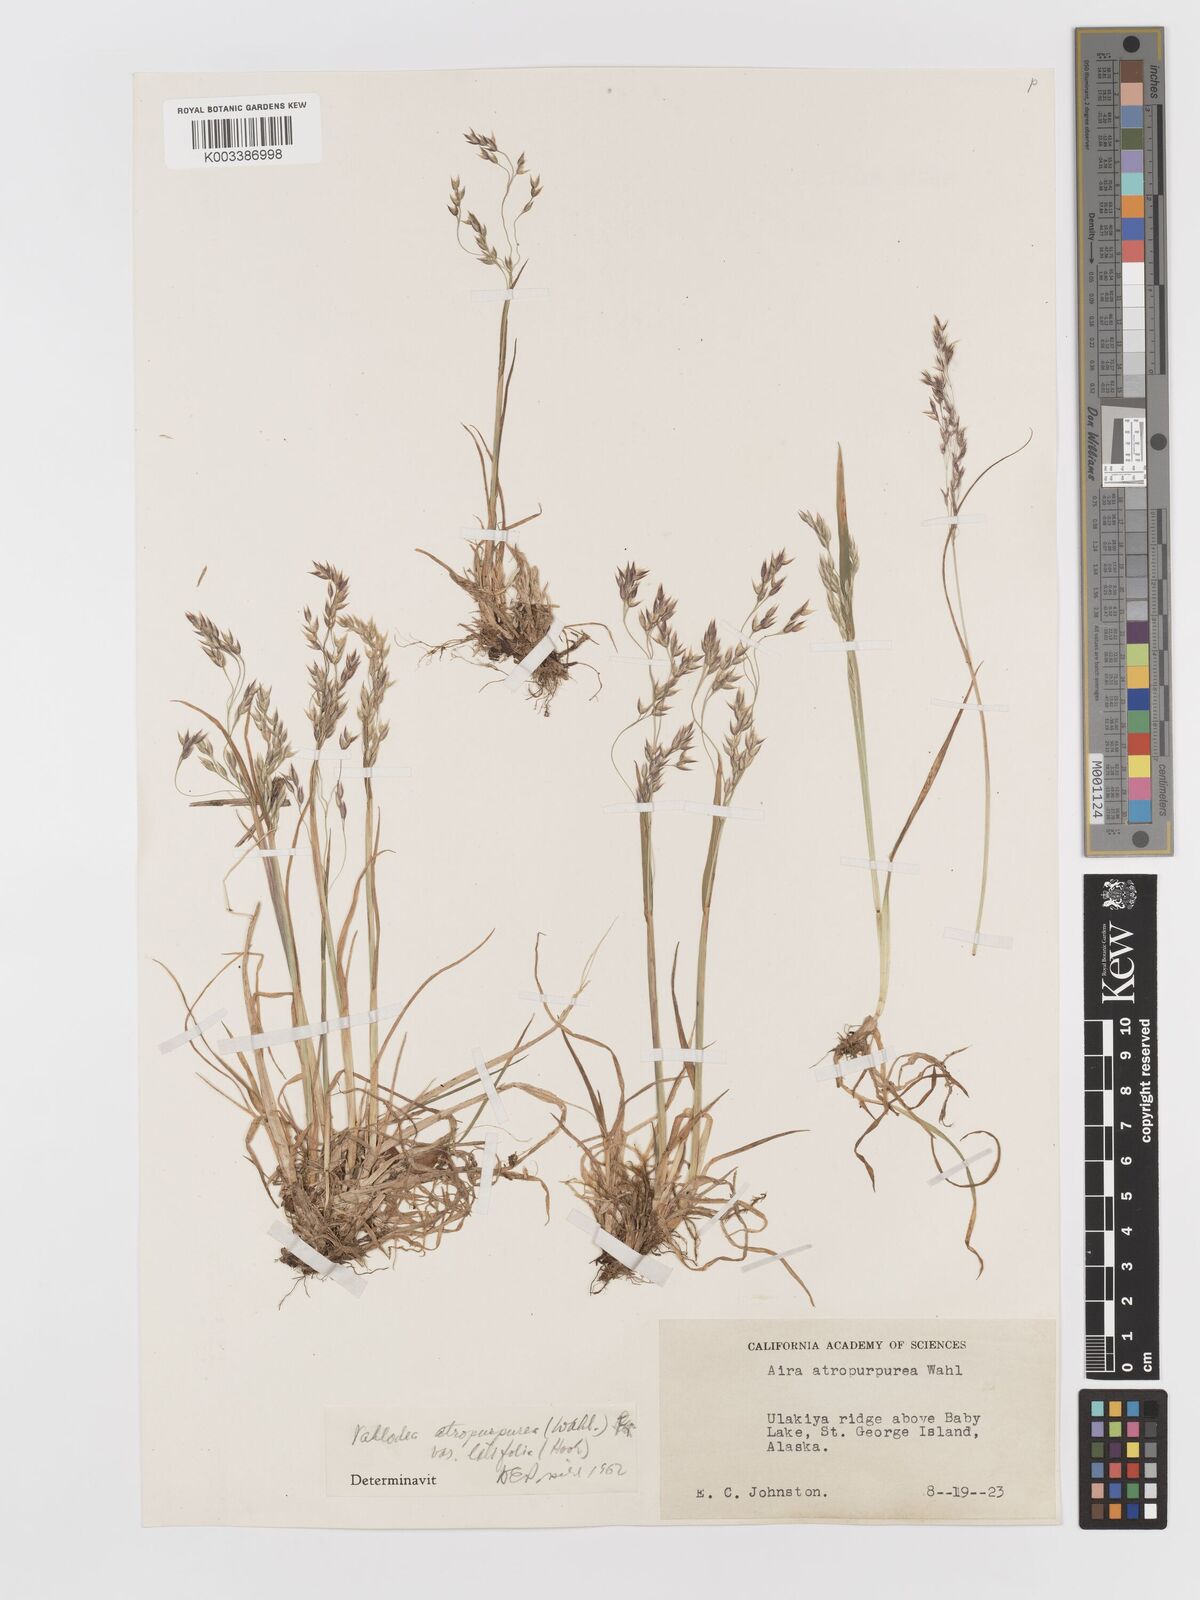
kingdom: Plantae
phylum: Tracheophyta
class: Liliopsida
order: Poales
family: Poaceae
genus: Vahlodea
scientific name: Vahlodea atropurpurea
